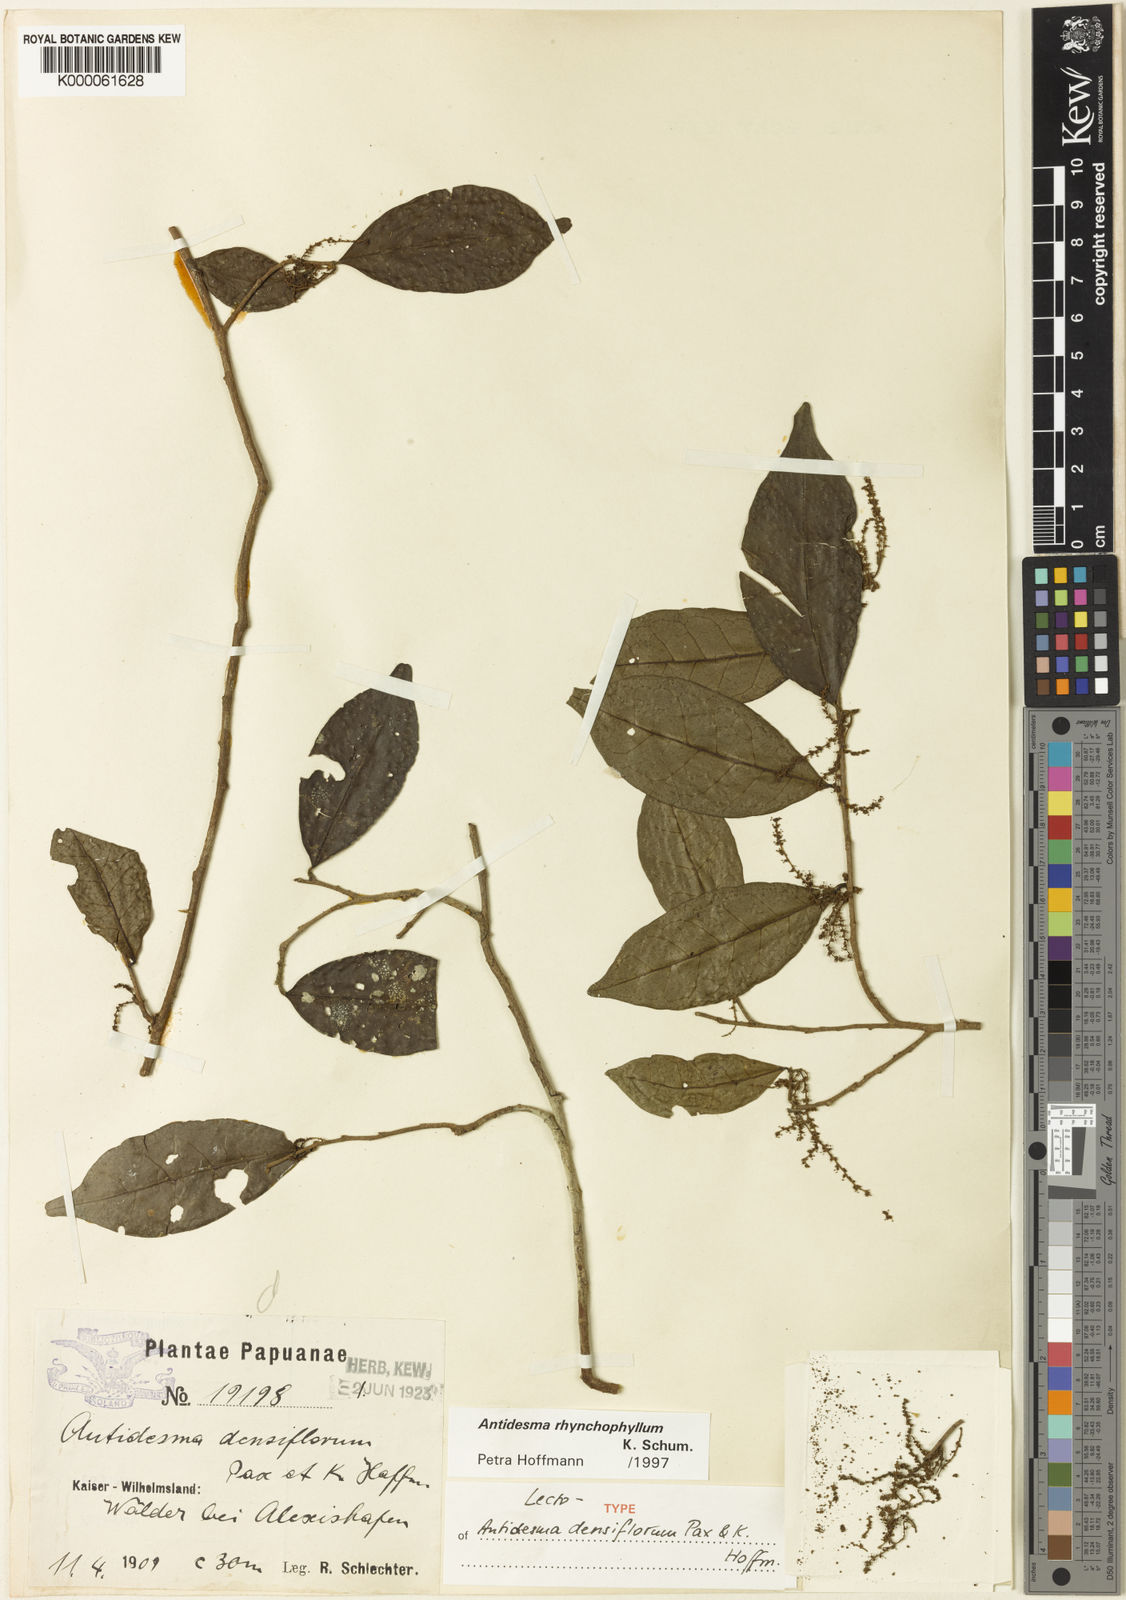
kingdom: Plantae
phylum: Tracheophyta
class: Magnoliopsida
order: Malpighiales
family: Phyllanthaceae
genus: Antidesma
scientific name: Antidesma rhynchophyllum
